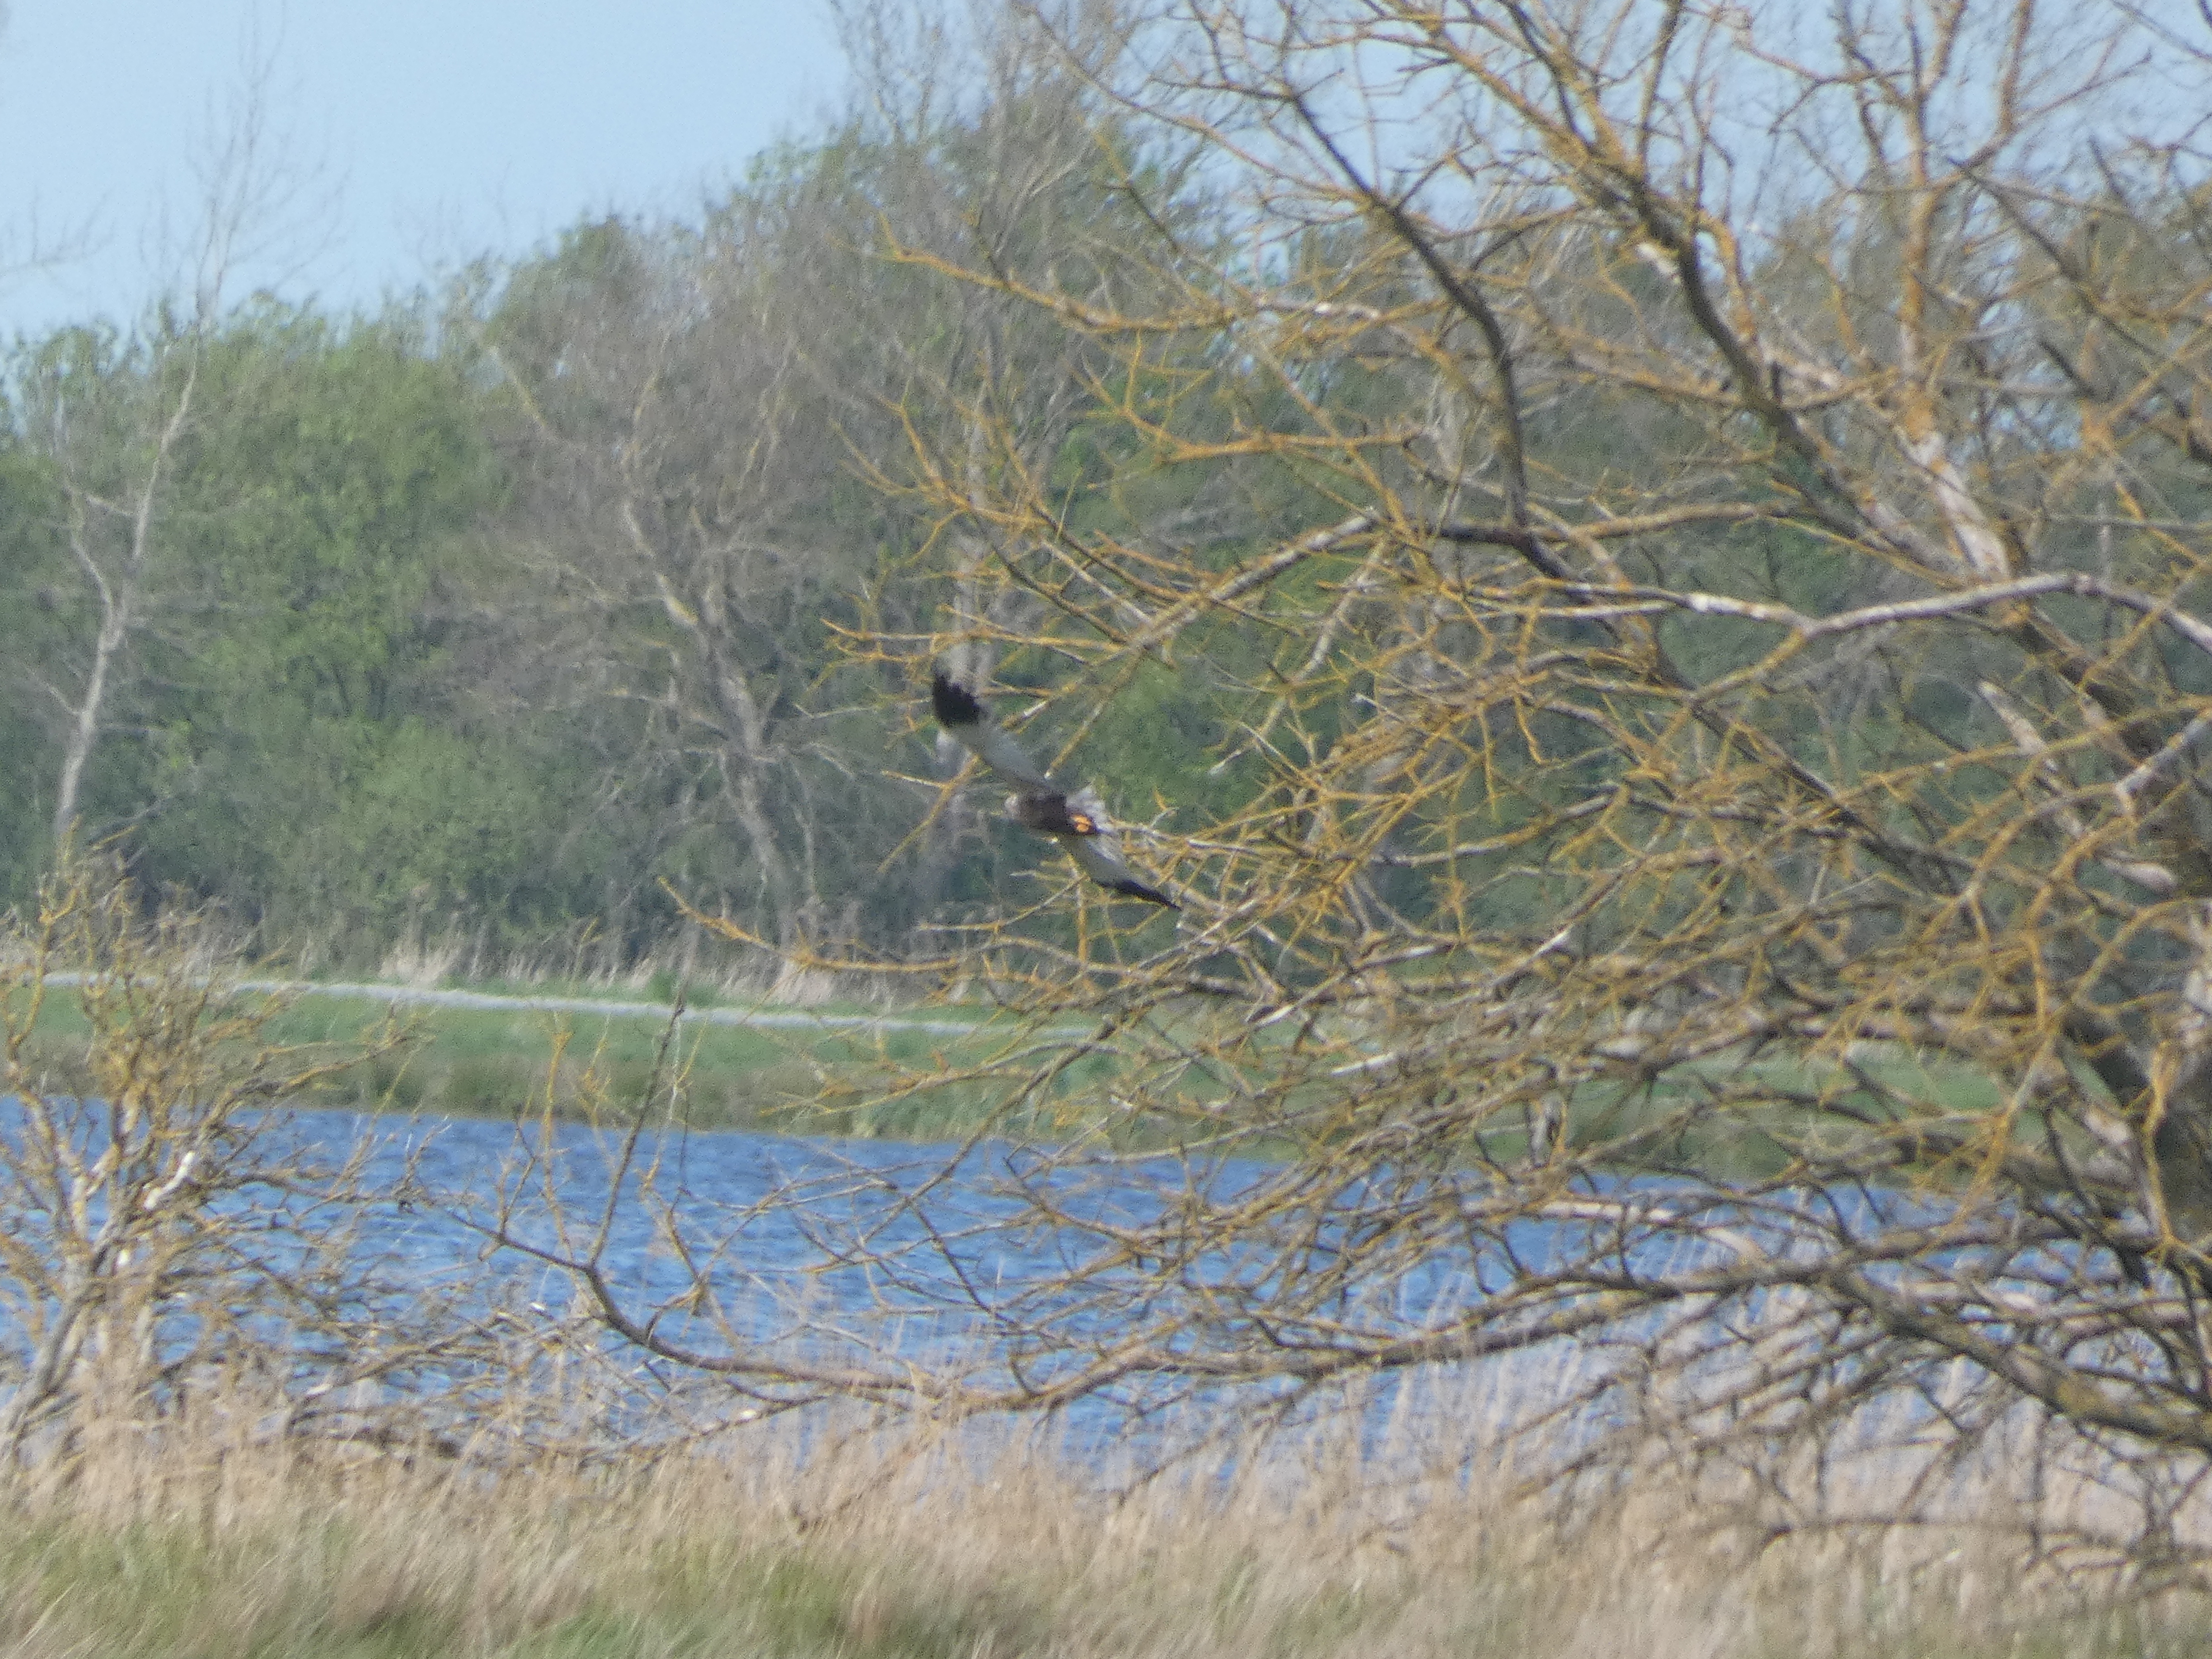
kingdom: Animalia
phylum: Chordata
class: Aves
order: Accipitriformes
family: Accipitridae
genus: Circus
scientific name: Circus aeruginosus
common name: Rørhøg
